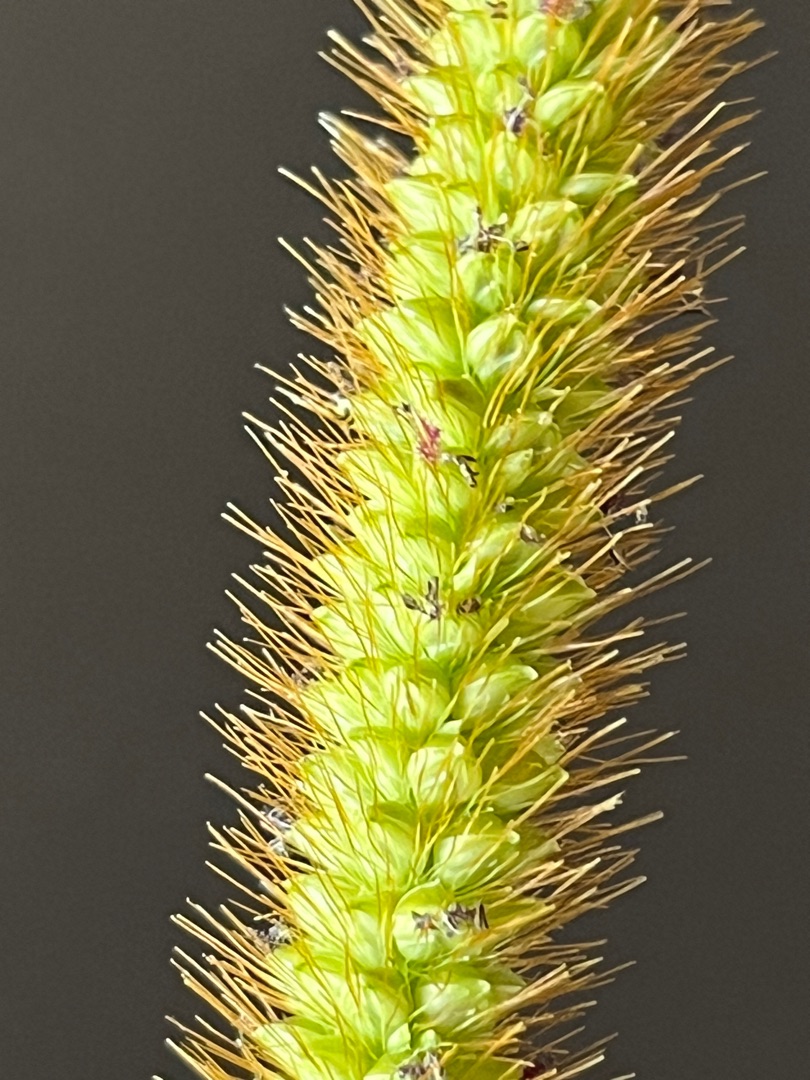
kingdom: Plantae
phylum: Tracheophyta
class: Liliopsida
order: Poales
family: Poaceae
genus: Setaria
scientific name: Setaria pumila
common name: Blågrøn skærmaks
